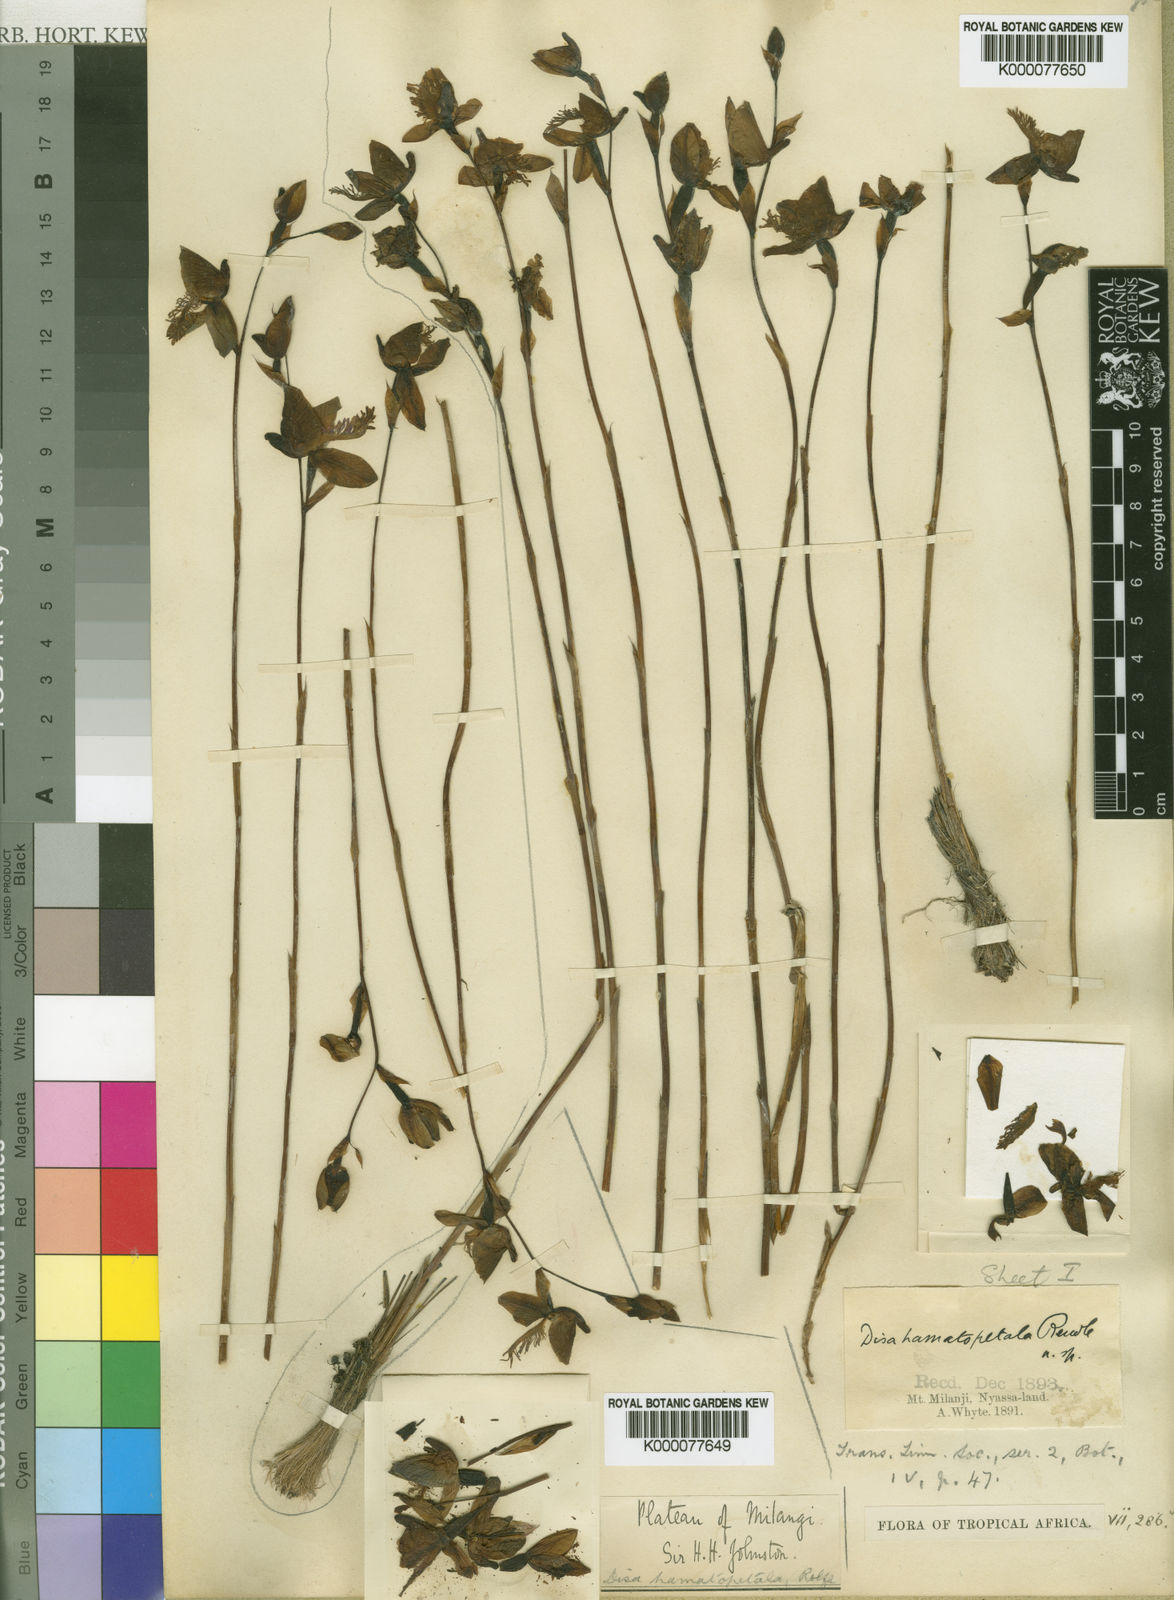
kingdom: Plantae
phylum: Tracheophyta
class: Liliopsida
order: Asparagales
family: Orchidaceae
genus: Disa
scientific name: Disa baurii
